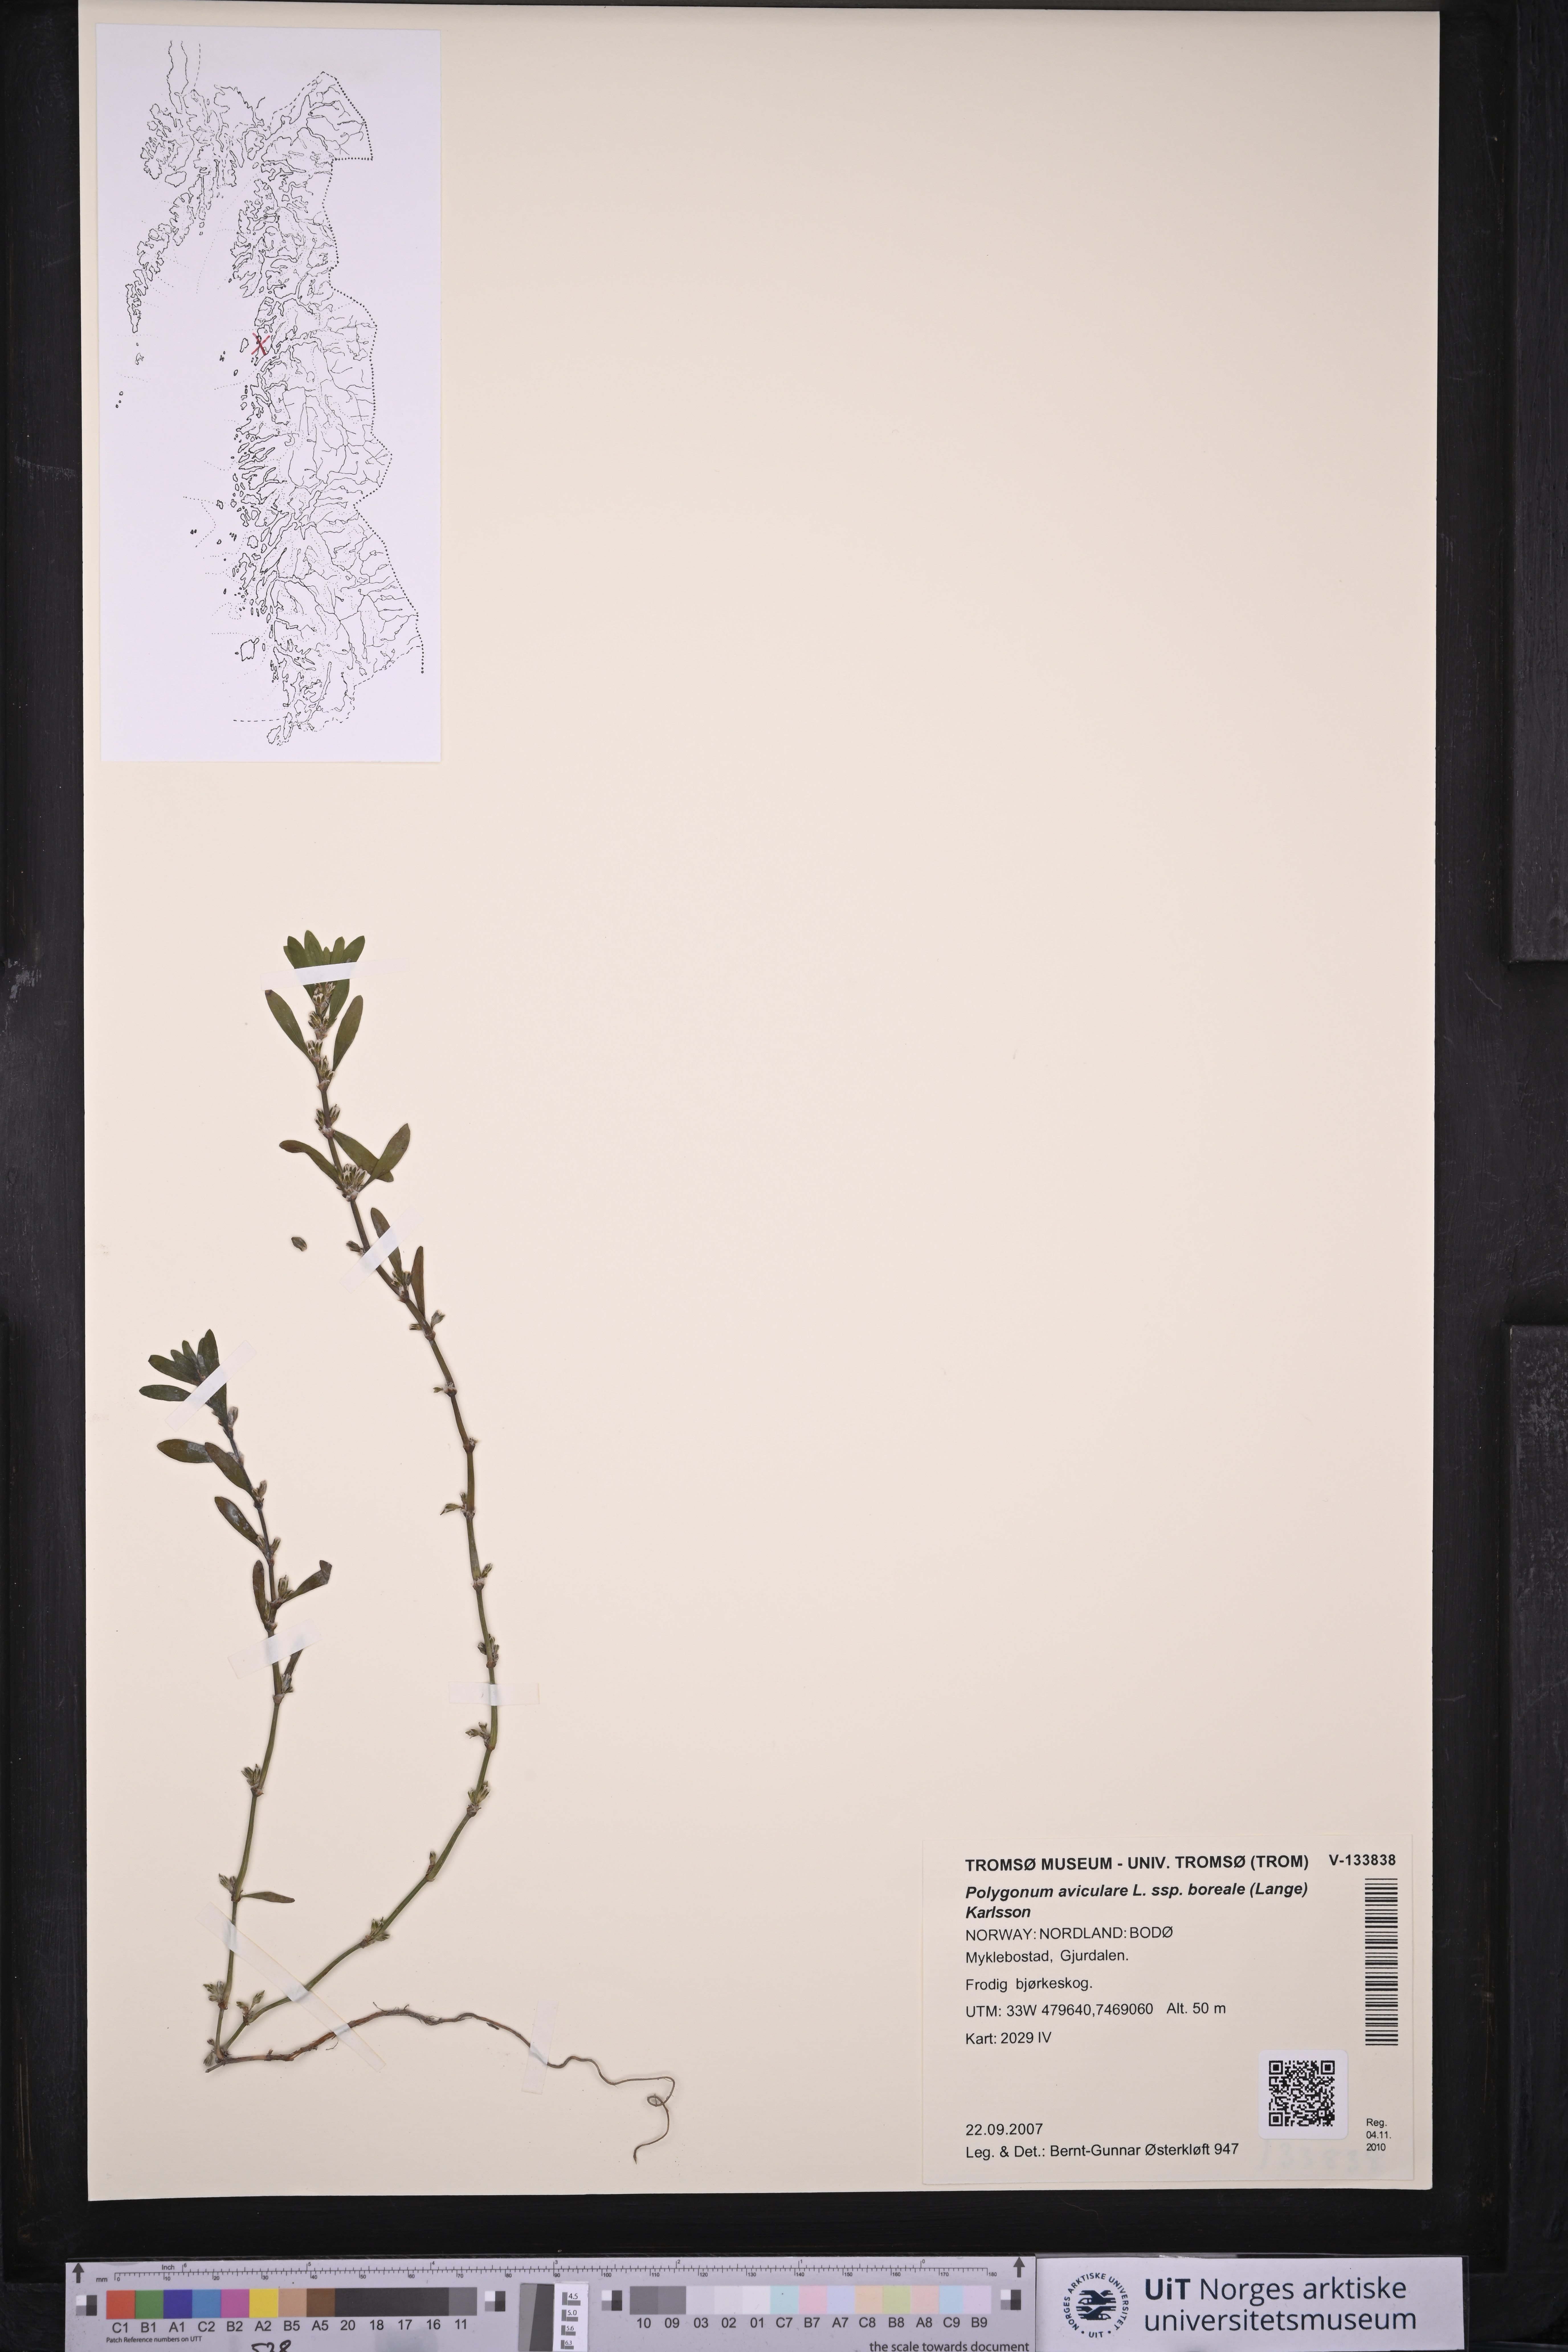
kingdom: Plantae
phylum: Tracheophyta
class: Magnoliopsida
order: Caryophyllales
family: Polygonaceae
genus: Polygonum
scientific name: Polygonum boreale
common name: Northern knotgrass
